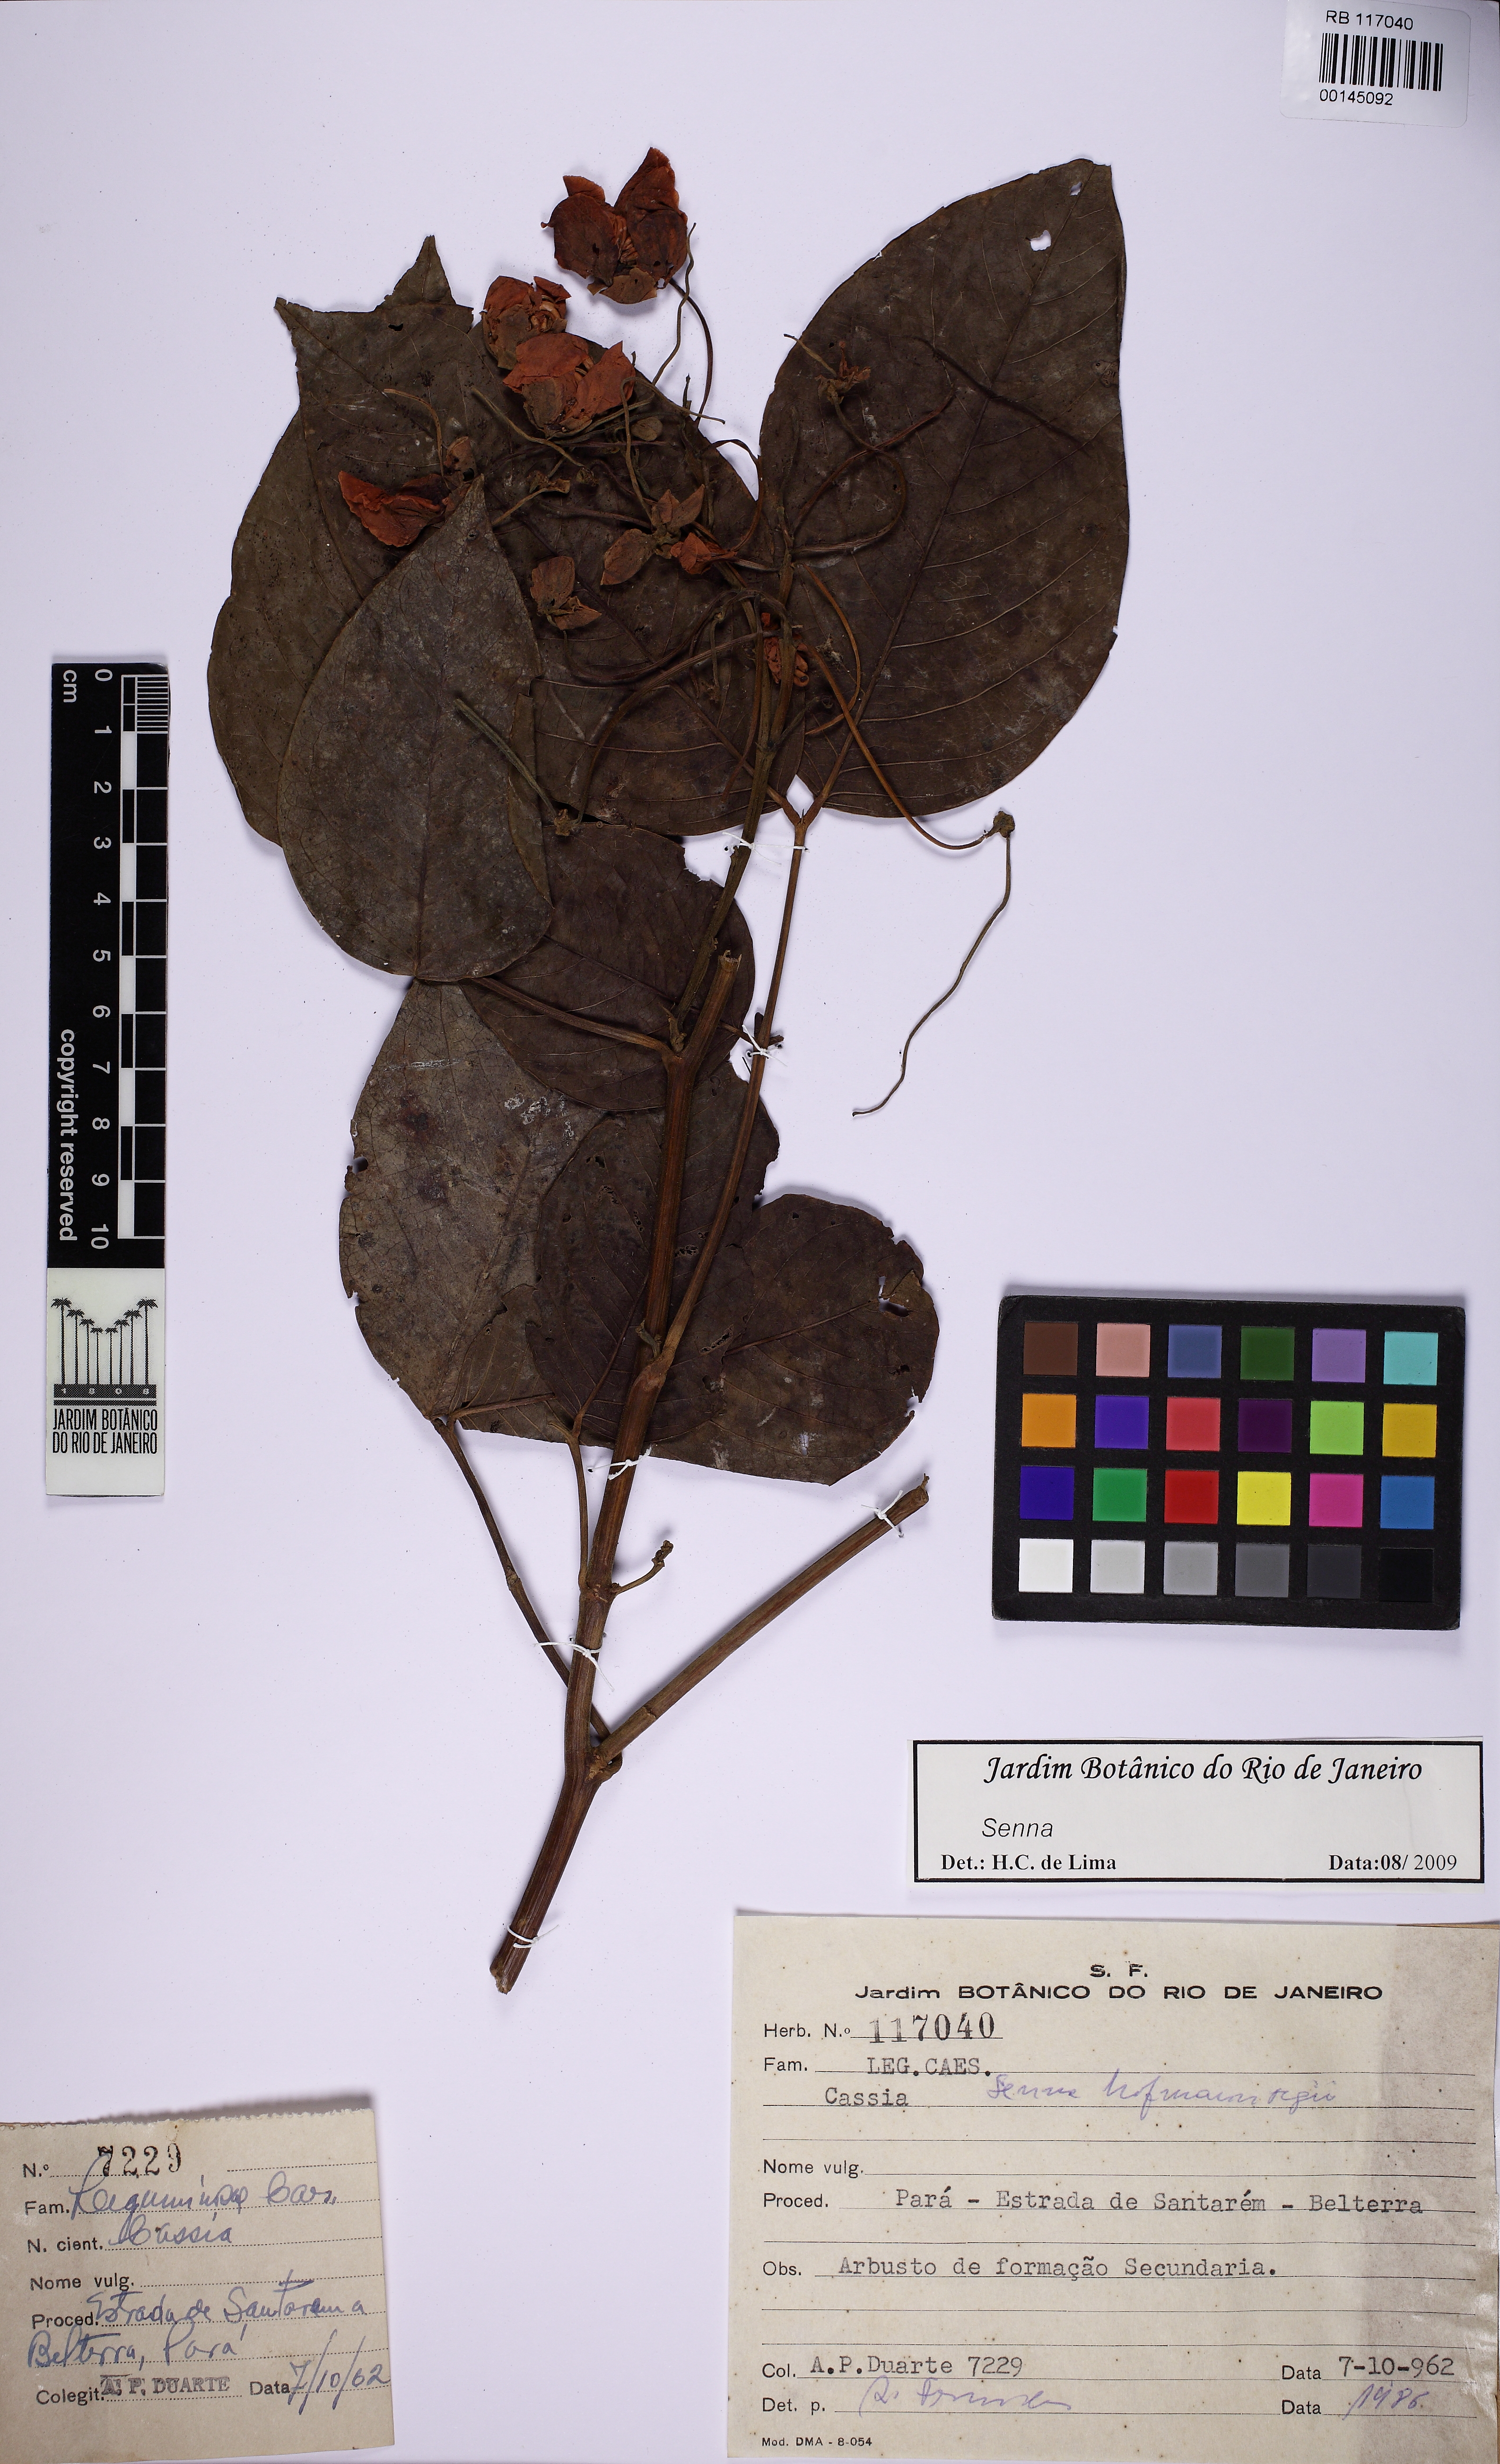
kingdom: Plantae
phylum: Tracheophyta
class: Magnoliopsida
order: Fabales
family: Fabaceae
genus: Senna
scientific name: Senna georgica
